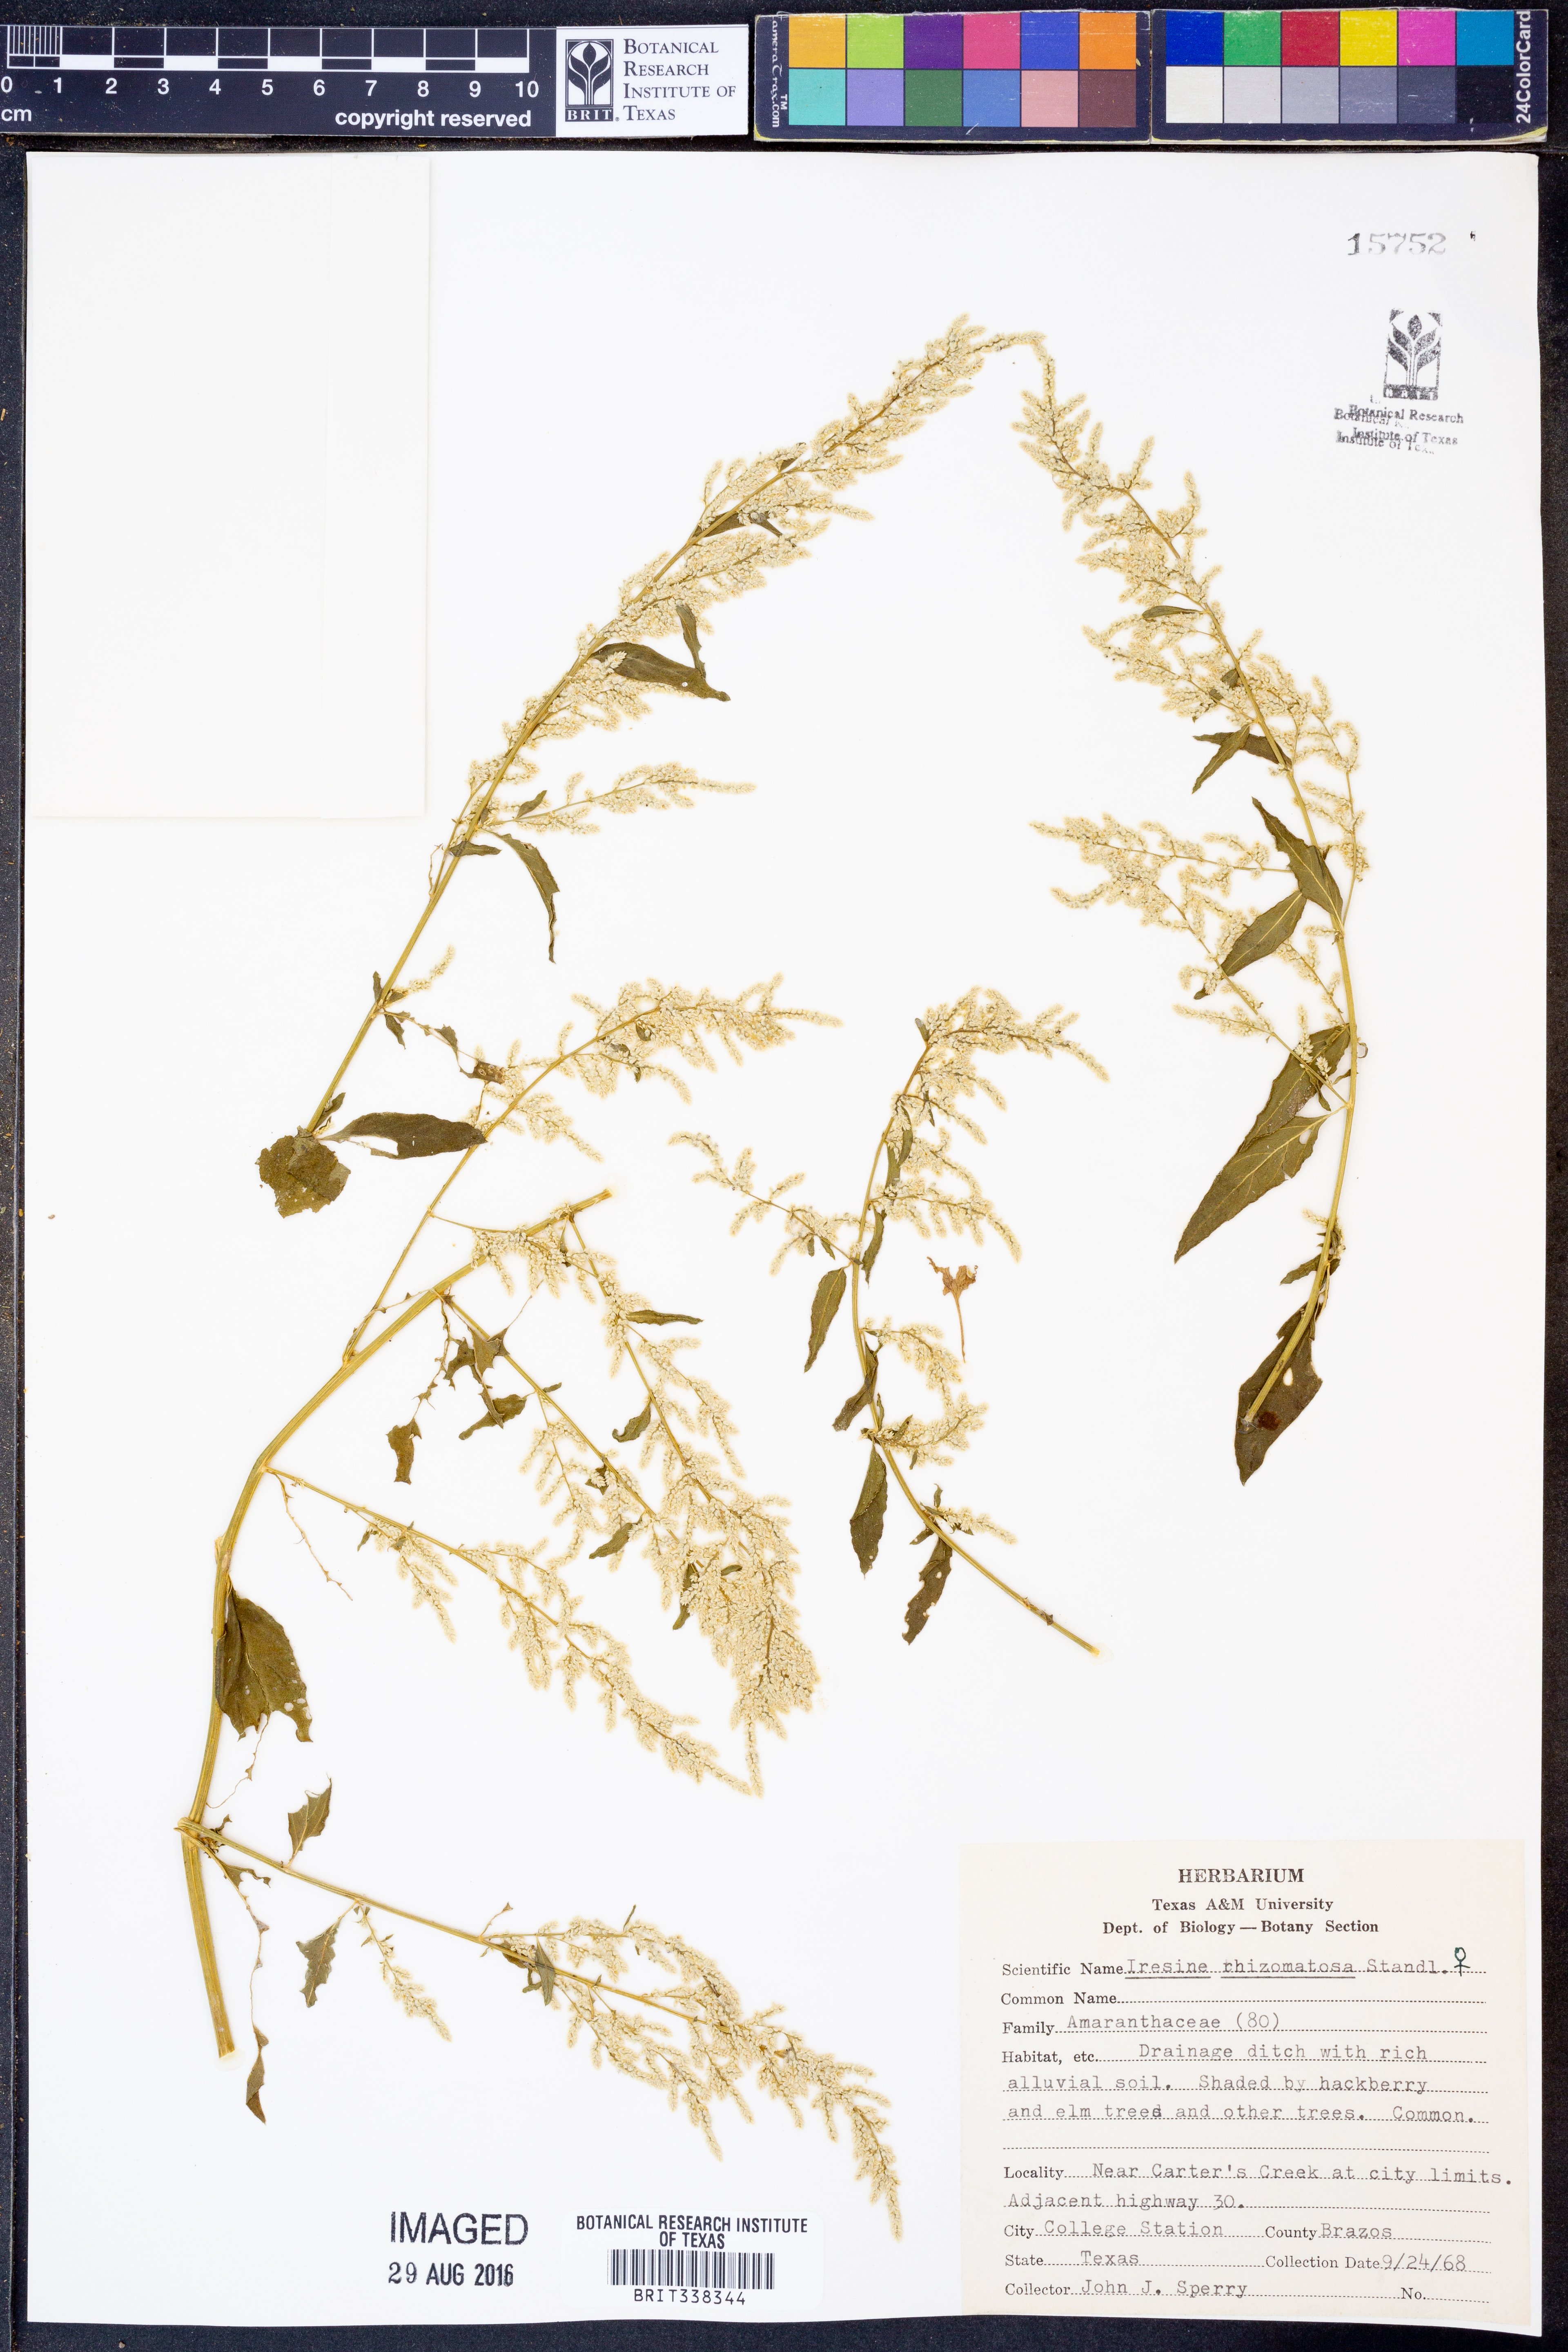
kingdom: Plantae
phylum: Tracheophyta
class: Magnoliopsida
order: Caryophyllales
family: Amaranthaceae
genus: Iresine
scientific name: Iresine rhizomatosa
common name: Juda's-bush
